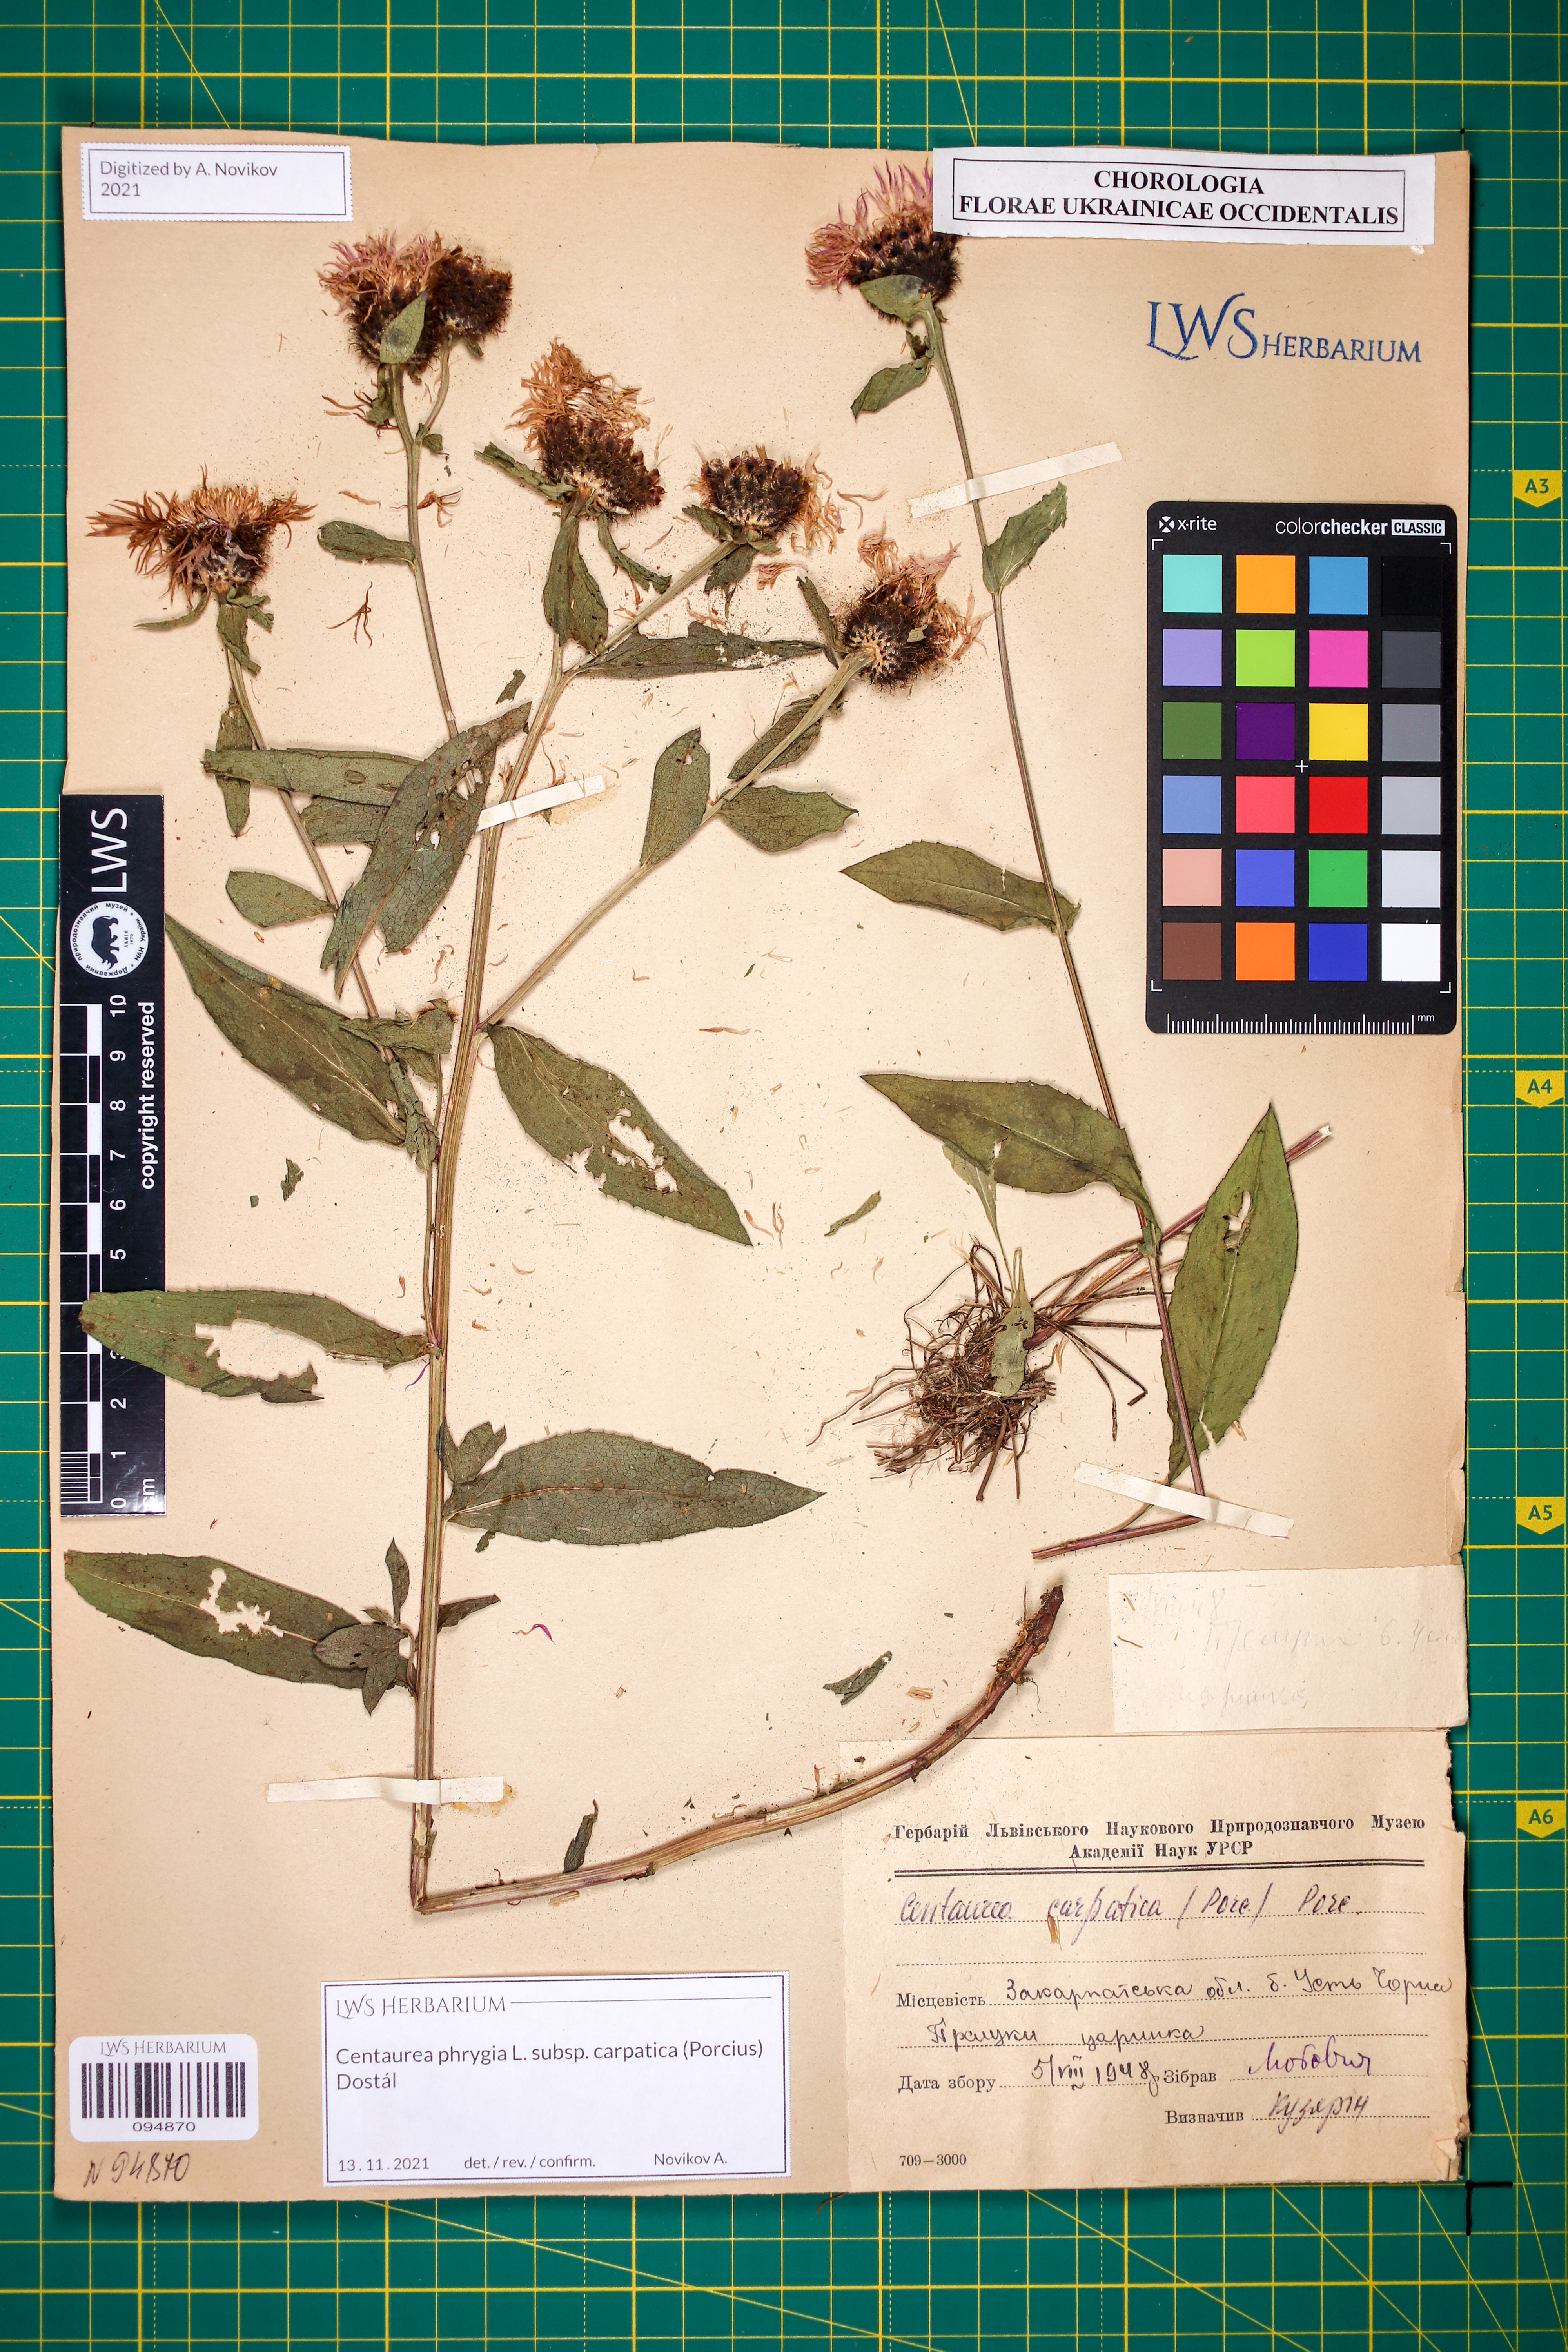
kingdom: Plantae
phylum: Tracheophyta
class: Magnoliopsida
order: Asterales
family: Asteraceae
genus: Centaurea
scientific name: Centaurea phrygia
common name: Wig knapweed
